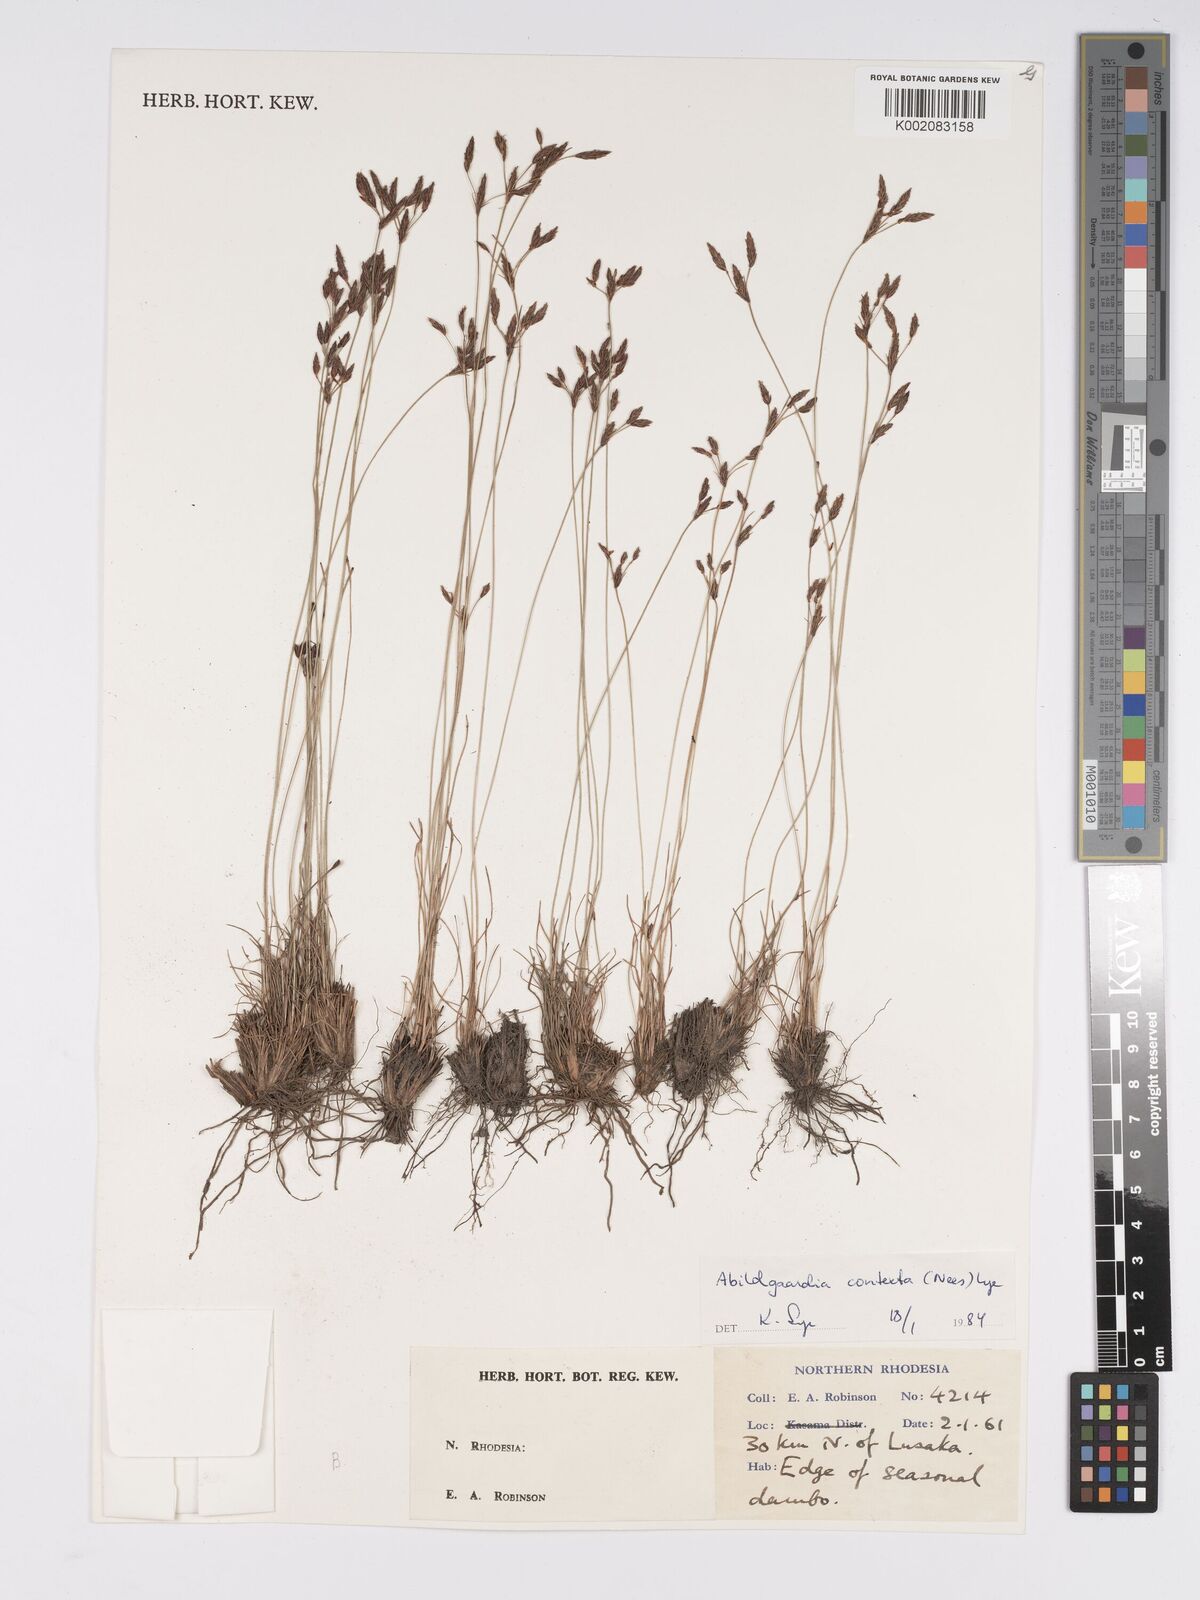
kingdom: Plantae
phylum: Tracheophyta
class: Liliopsida
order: Poales
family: Cyperaceae
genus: Bulbostylis
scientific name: Bulbostylis contexta
